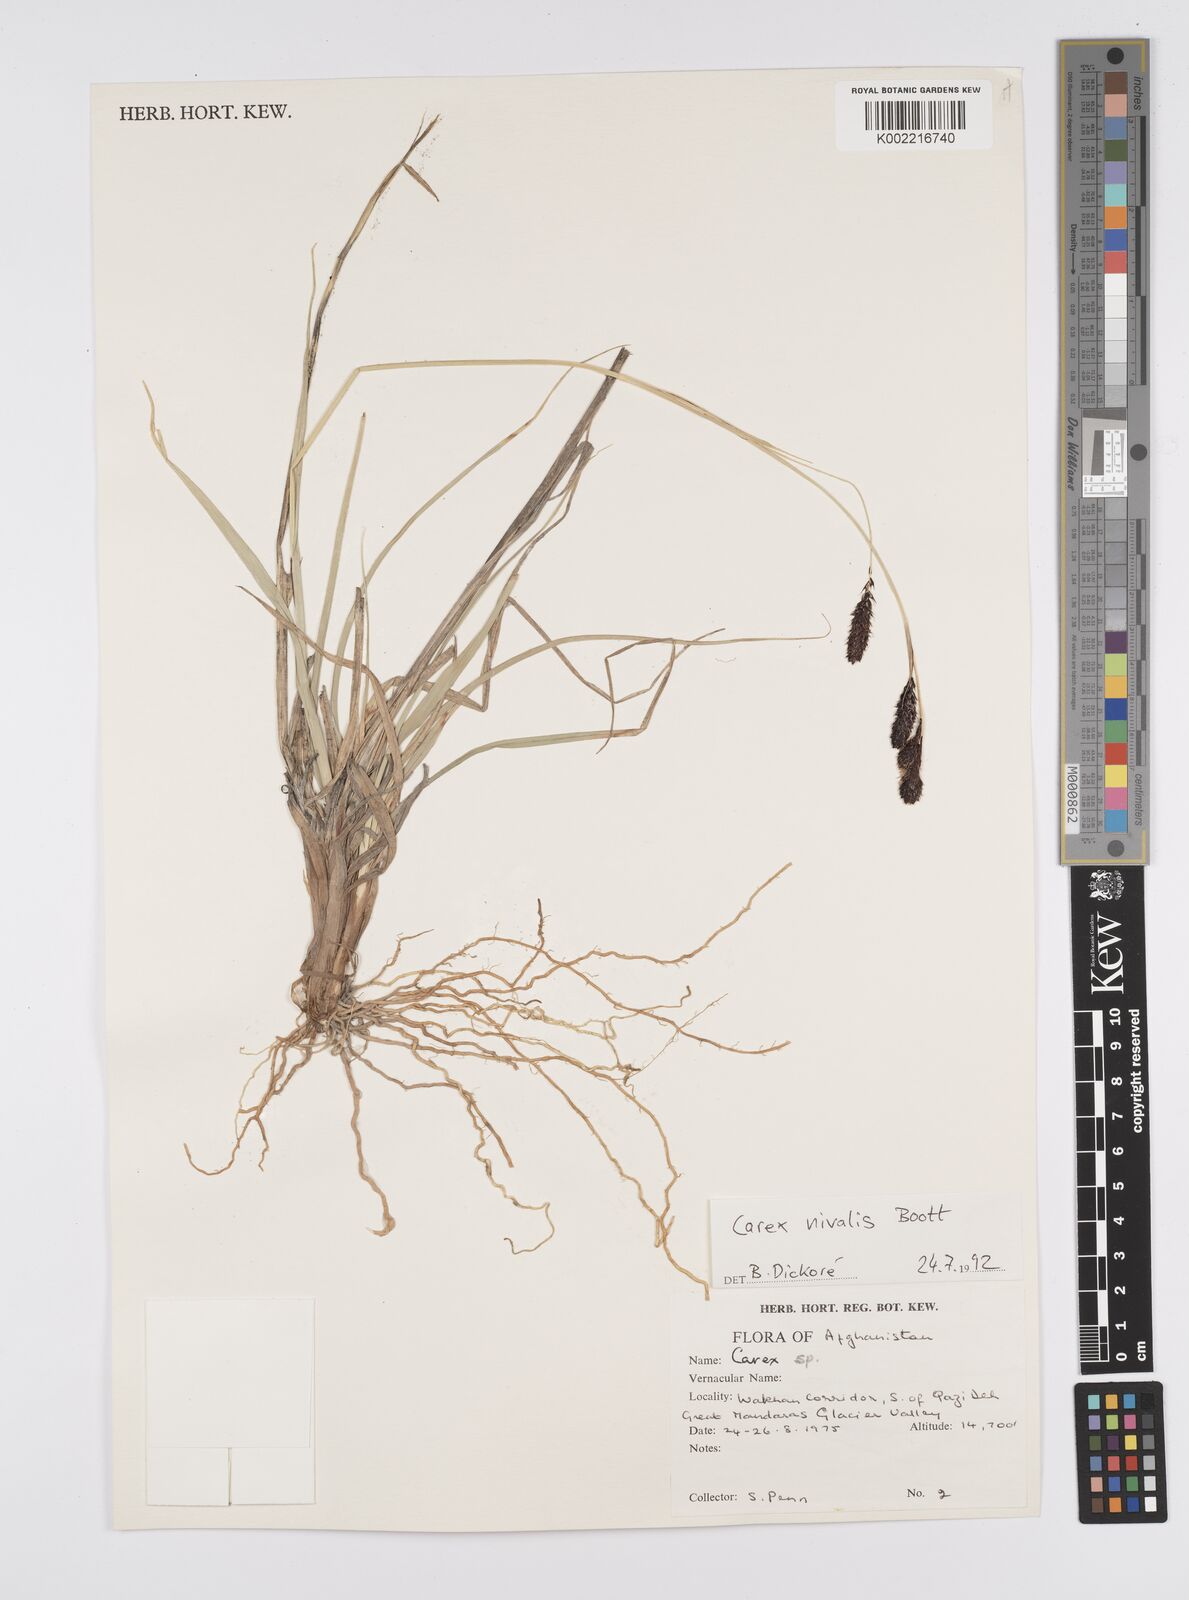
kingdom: Plantae
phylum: Tracheophyta
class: Liliopsida
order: Poales
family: Cyperaceae
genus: Carex
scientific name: Carex nivalis
